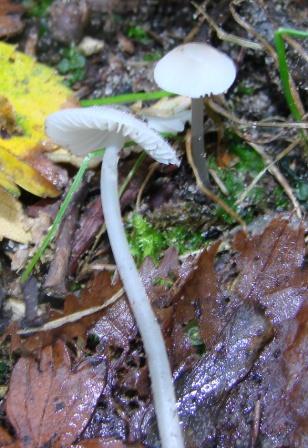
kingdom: Fungi
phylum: Basidiomycota
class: Agaricomycetes
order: Agaricales
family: Mycenaceae
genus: Mycena
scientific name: Mycena vitilis
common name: blankstokket huesvamp
